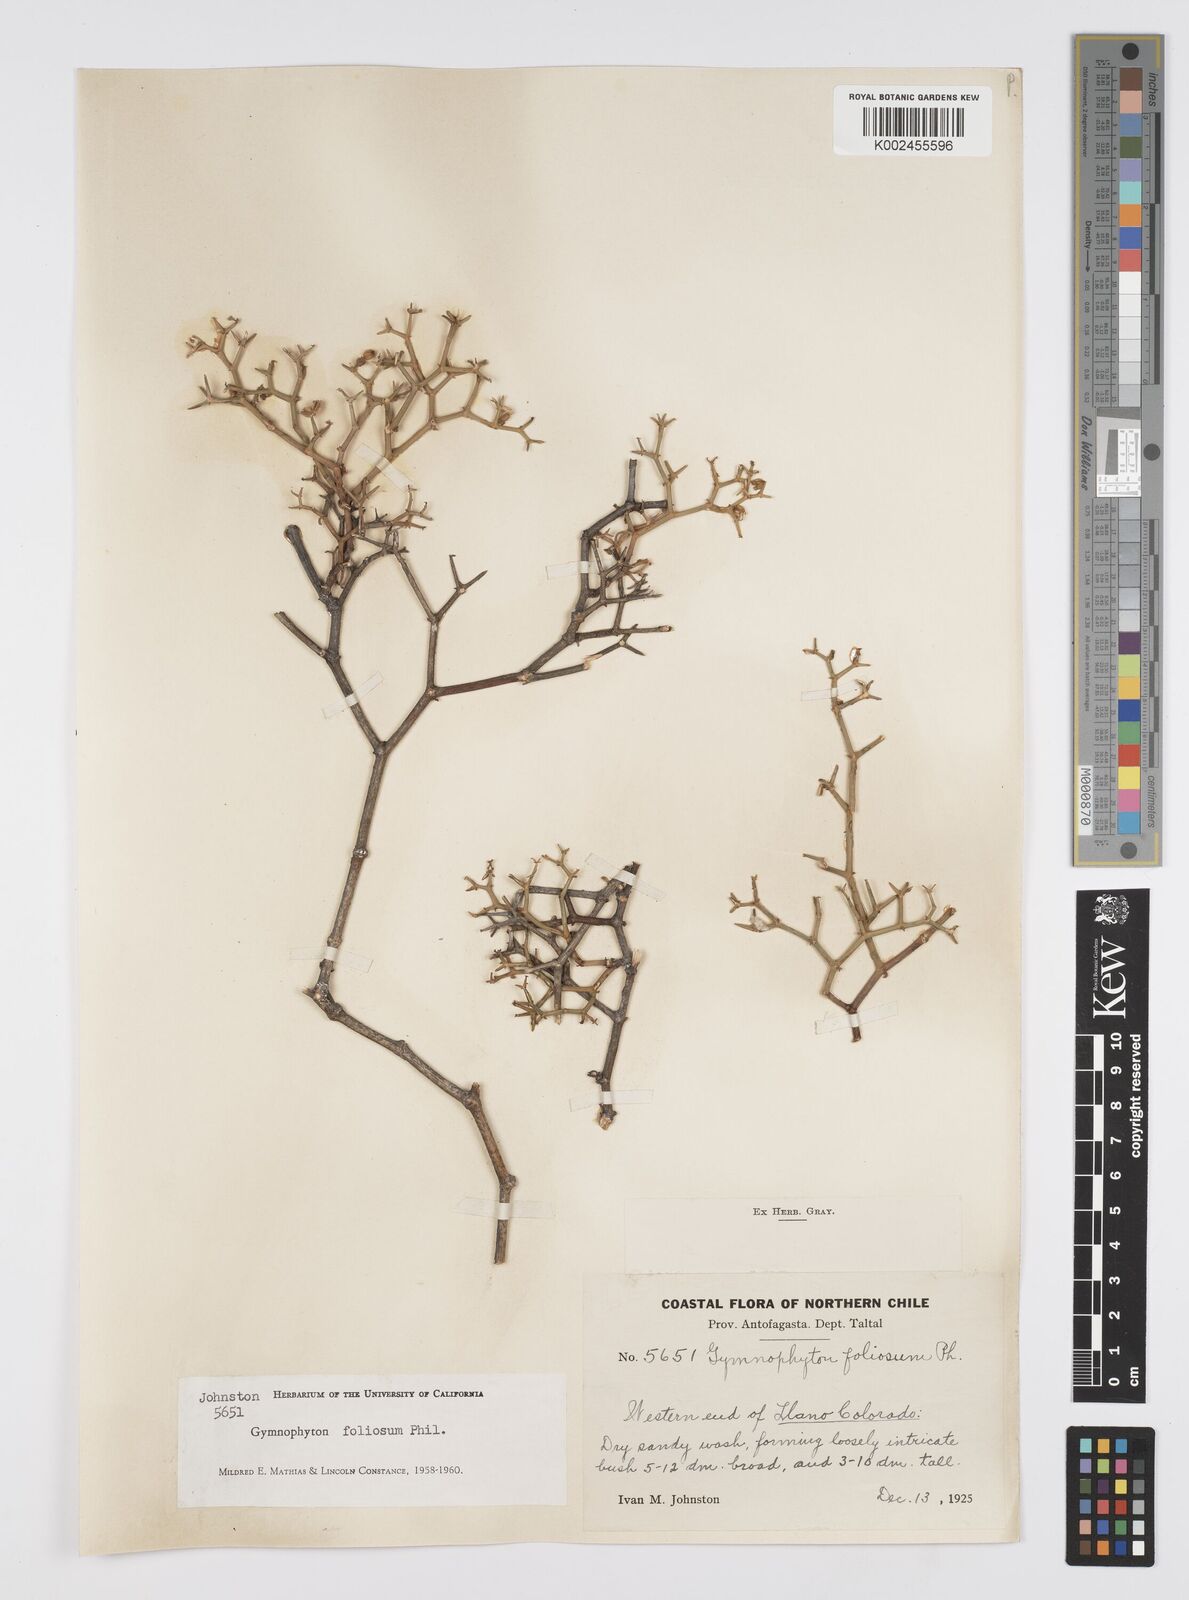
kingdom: Plantae
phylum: Tracheophyta
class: Magnoliopsida
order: Apiales
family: Apiaceae
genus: Gymnophyton
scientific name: Gymnophyton foliosum
